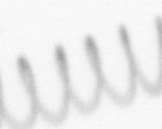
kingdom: Chromista
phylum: Ochrophyta
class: Bacillariophyceae
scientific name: Bacillariophyceae
